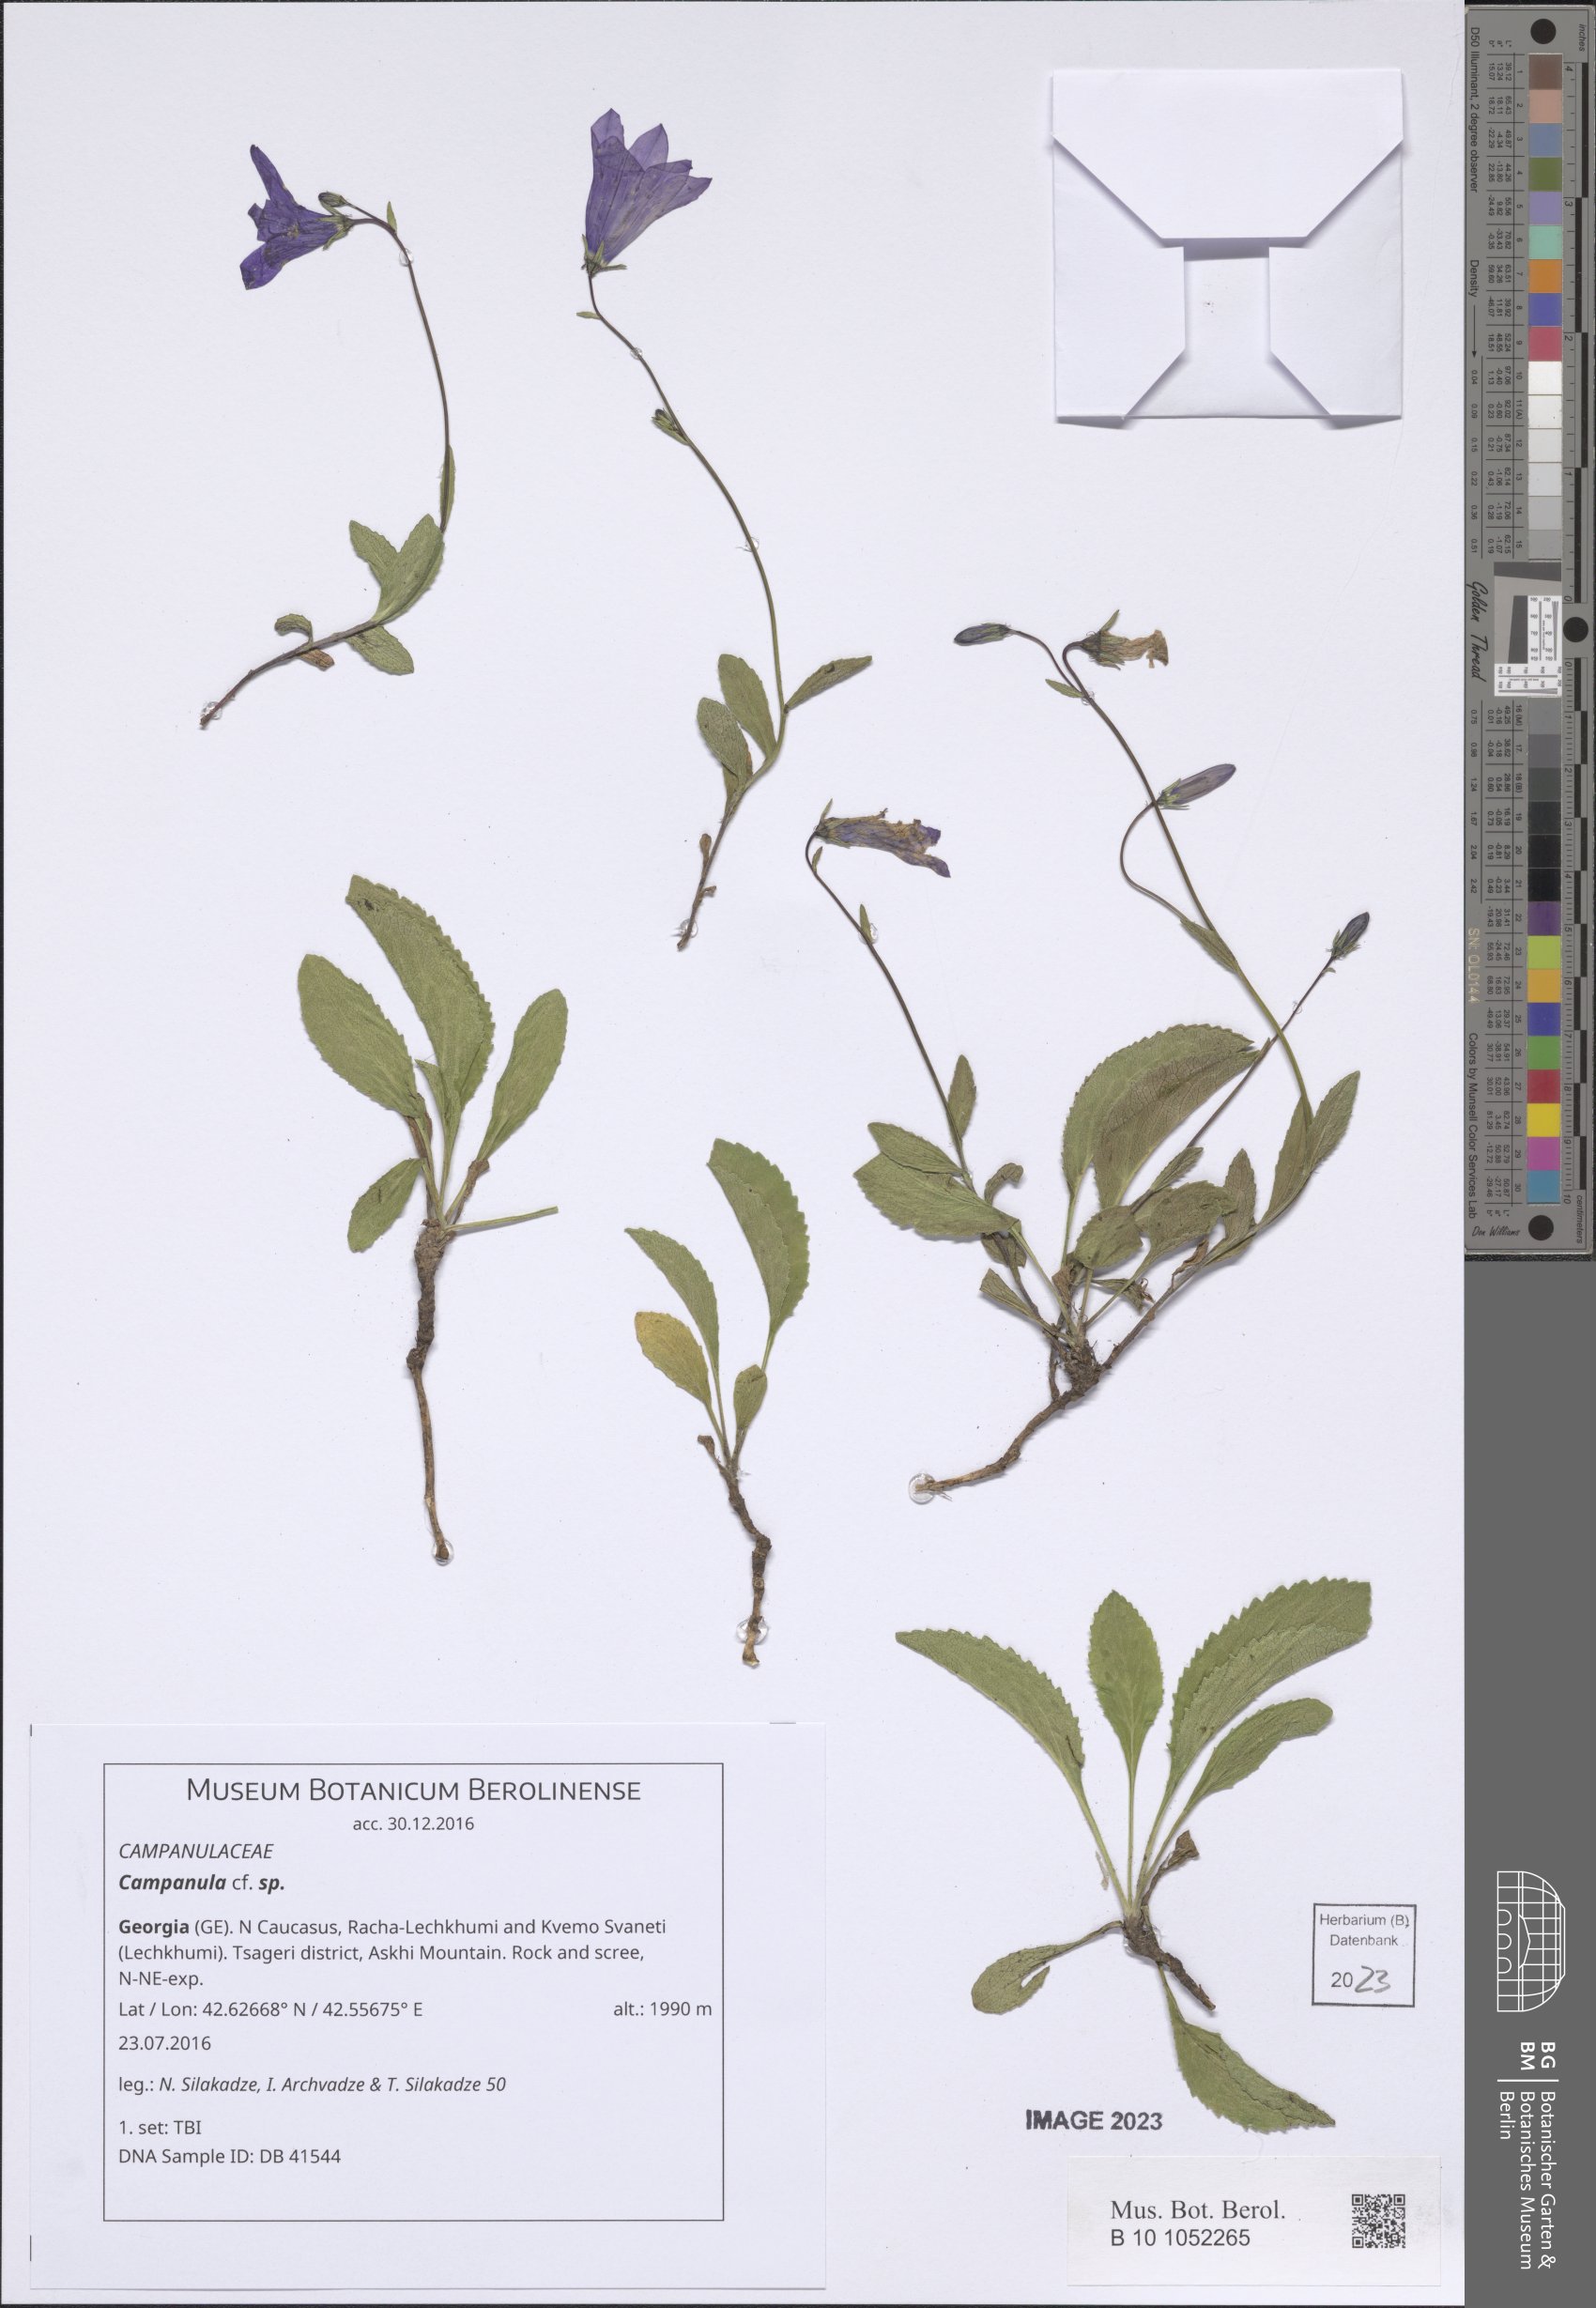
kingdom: Plantae
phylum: Tracheophyta
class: Magnoliopsida
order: Asterales
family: Campanulaceae
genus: Campanula
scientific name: Campanula
